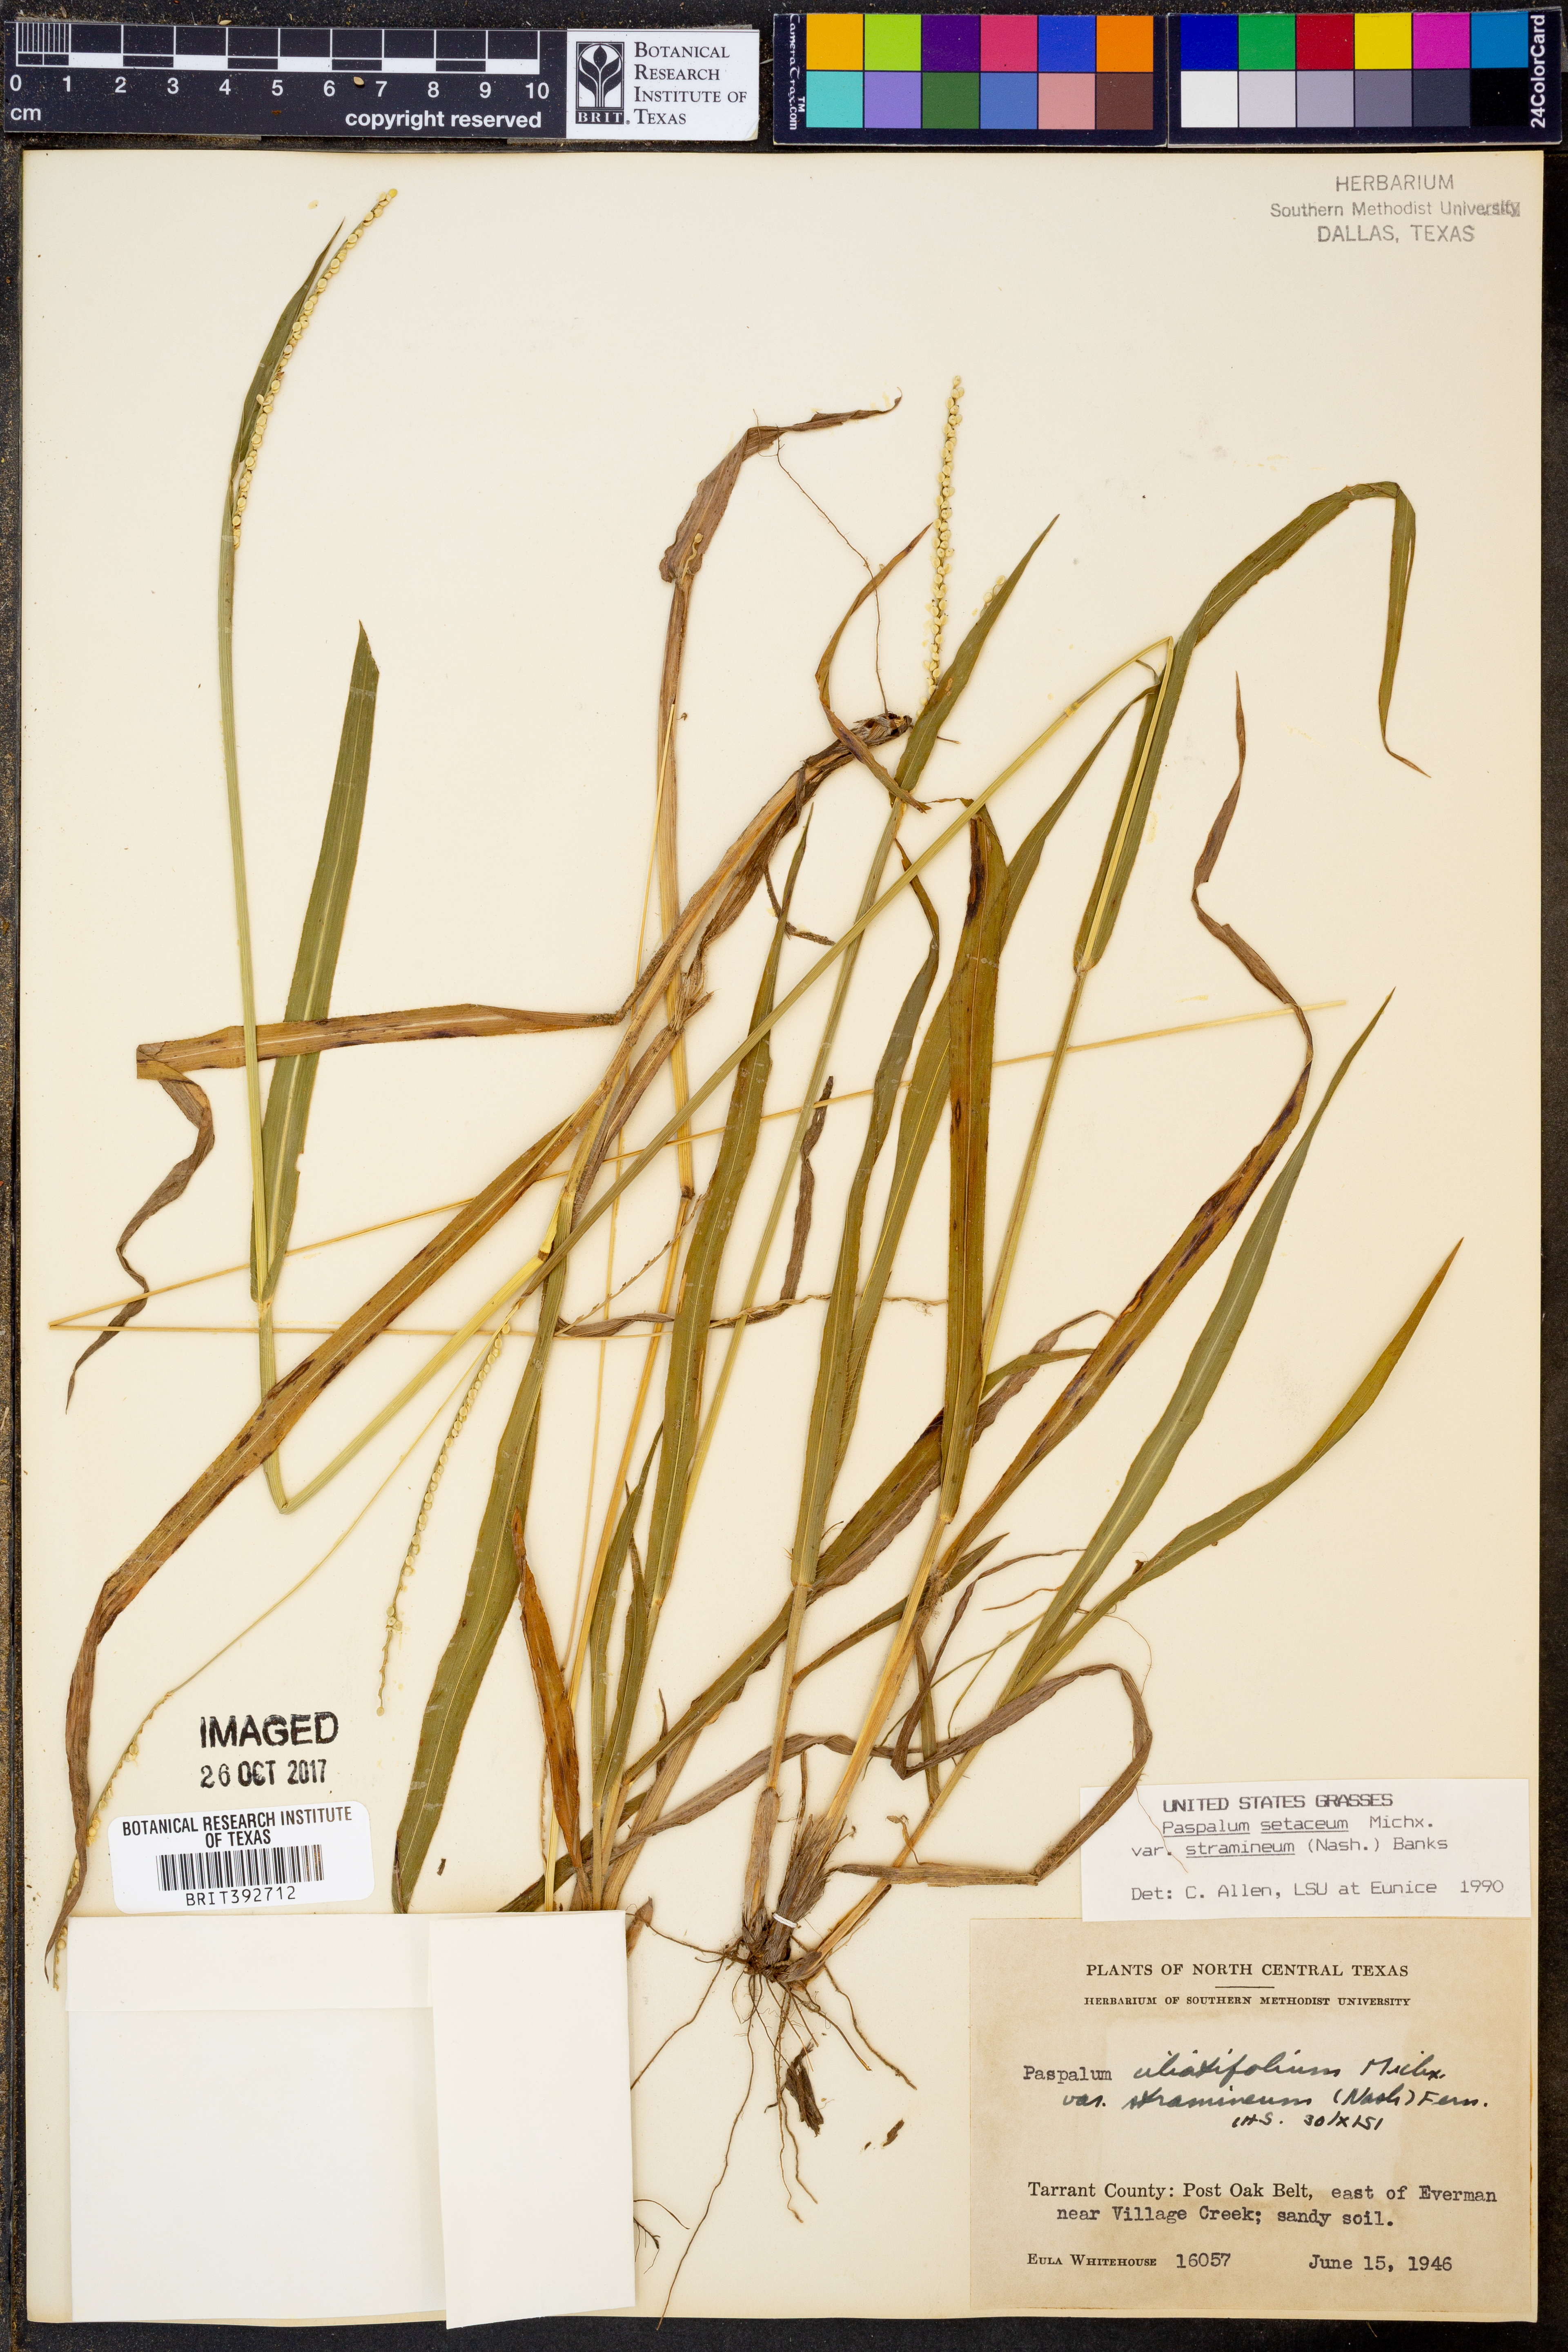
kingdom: Plantae
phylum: Tracheophyta
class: Liliopsida
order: Poales
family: Poaceae
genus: Paspalum
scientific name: Paspalum setaceum
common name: Slender paspalum
